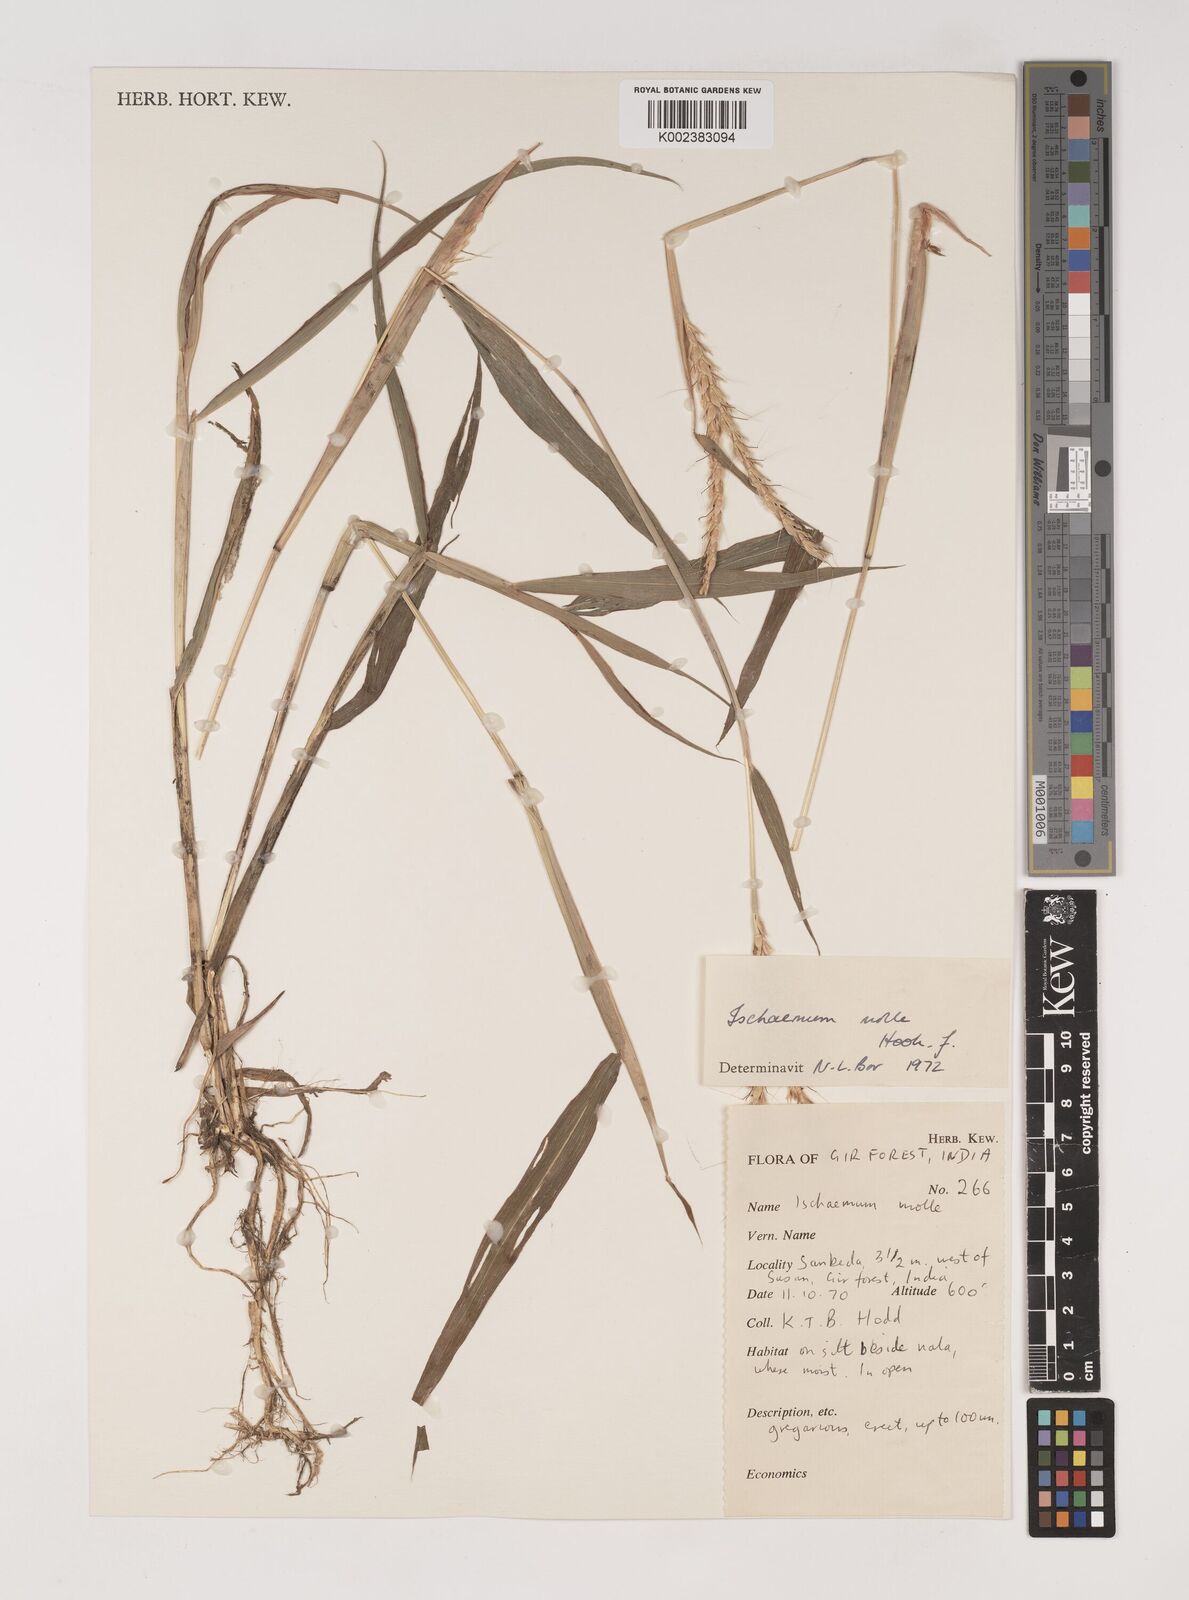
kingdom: Plantae
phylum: Tracheophyta
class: Liliopsida
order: Poales
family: Poaceae
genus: Ischaemum
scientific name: Ischaemum molle
